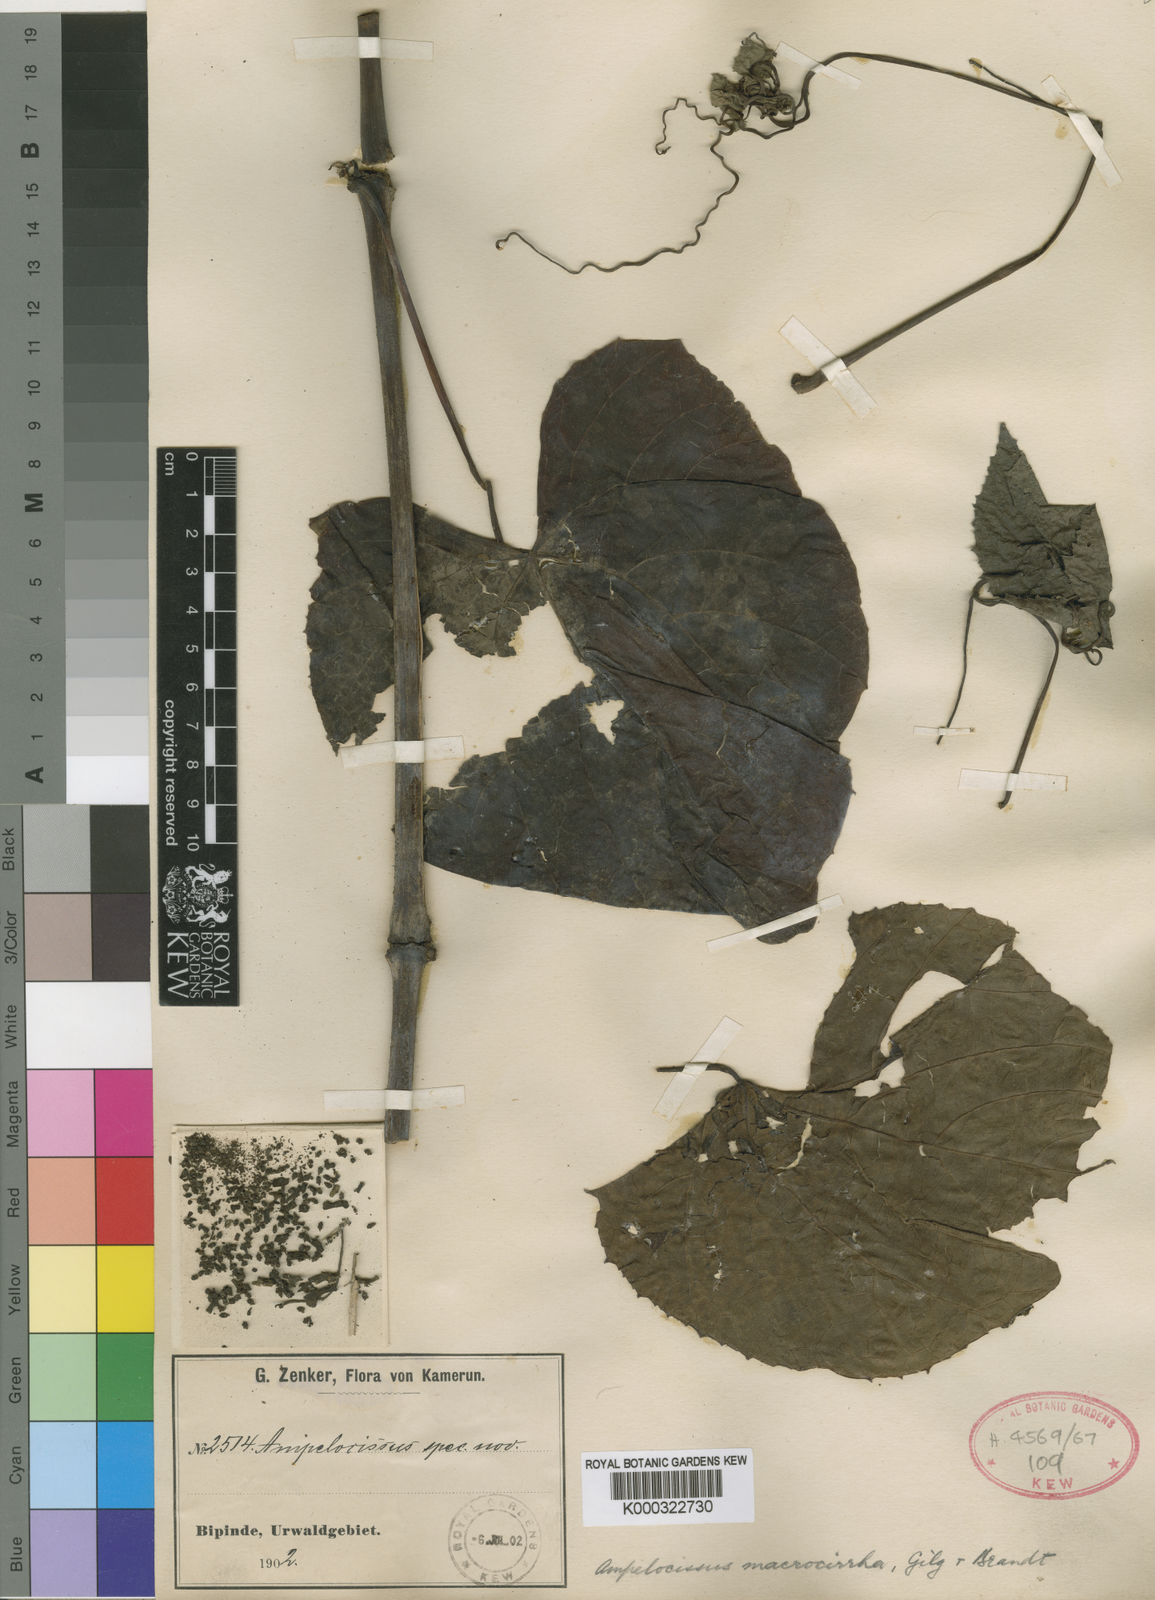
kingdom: Plantae
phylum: Tracheophyta
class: Magnoliopsida
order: Vitales
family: Vitaceae
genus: Ampelocissus
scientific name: Ampelocissus macrocirrha
